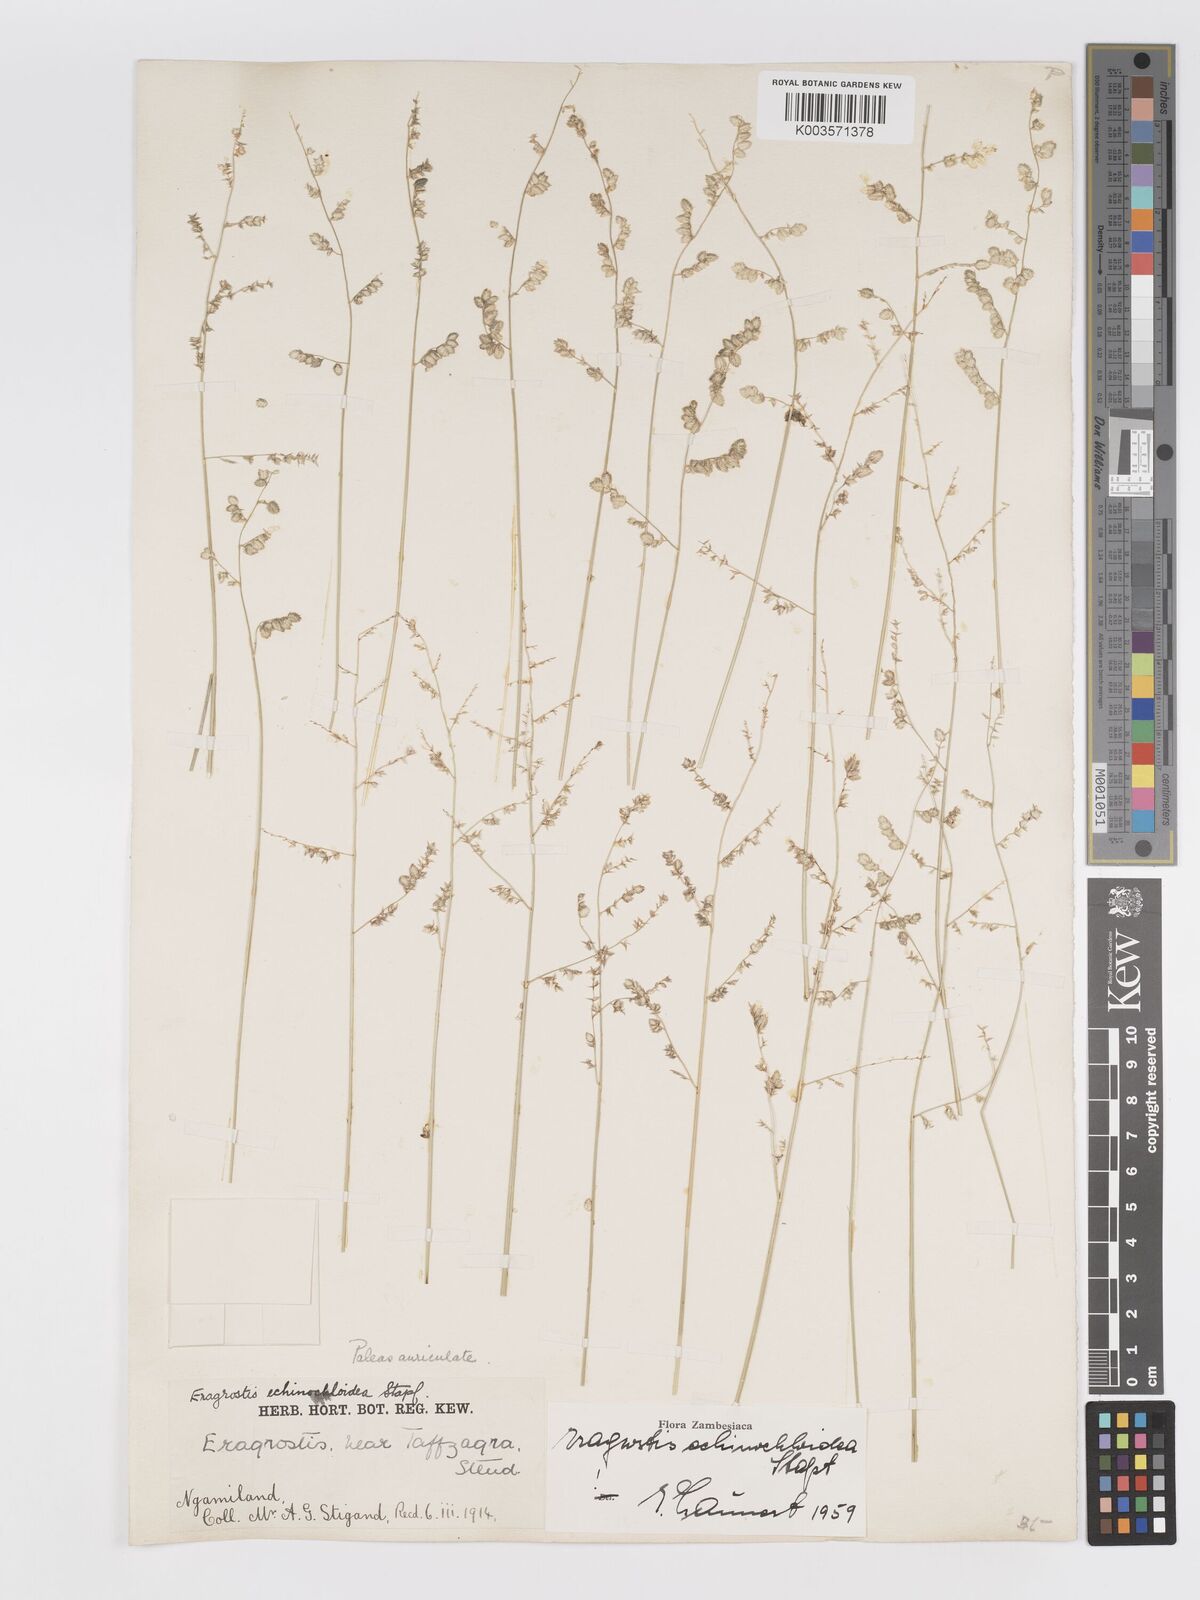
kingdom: Plantae
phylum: Tracheophyta
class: Liliopsida
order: Poales
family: Poaceae
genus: Eragrostis
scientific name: Eragrostis echinochloidea
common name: African lovegrass
